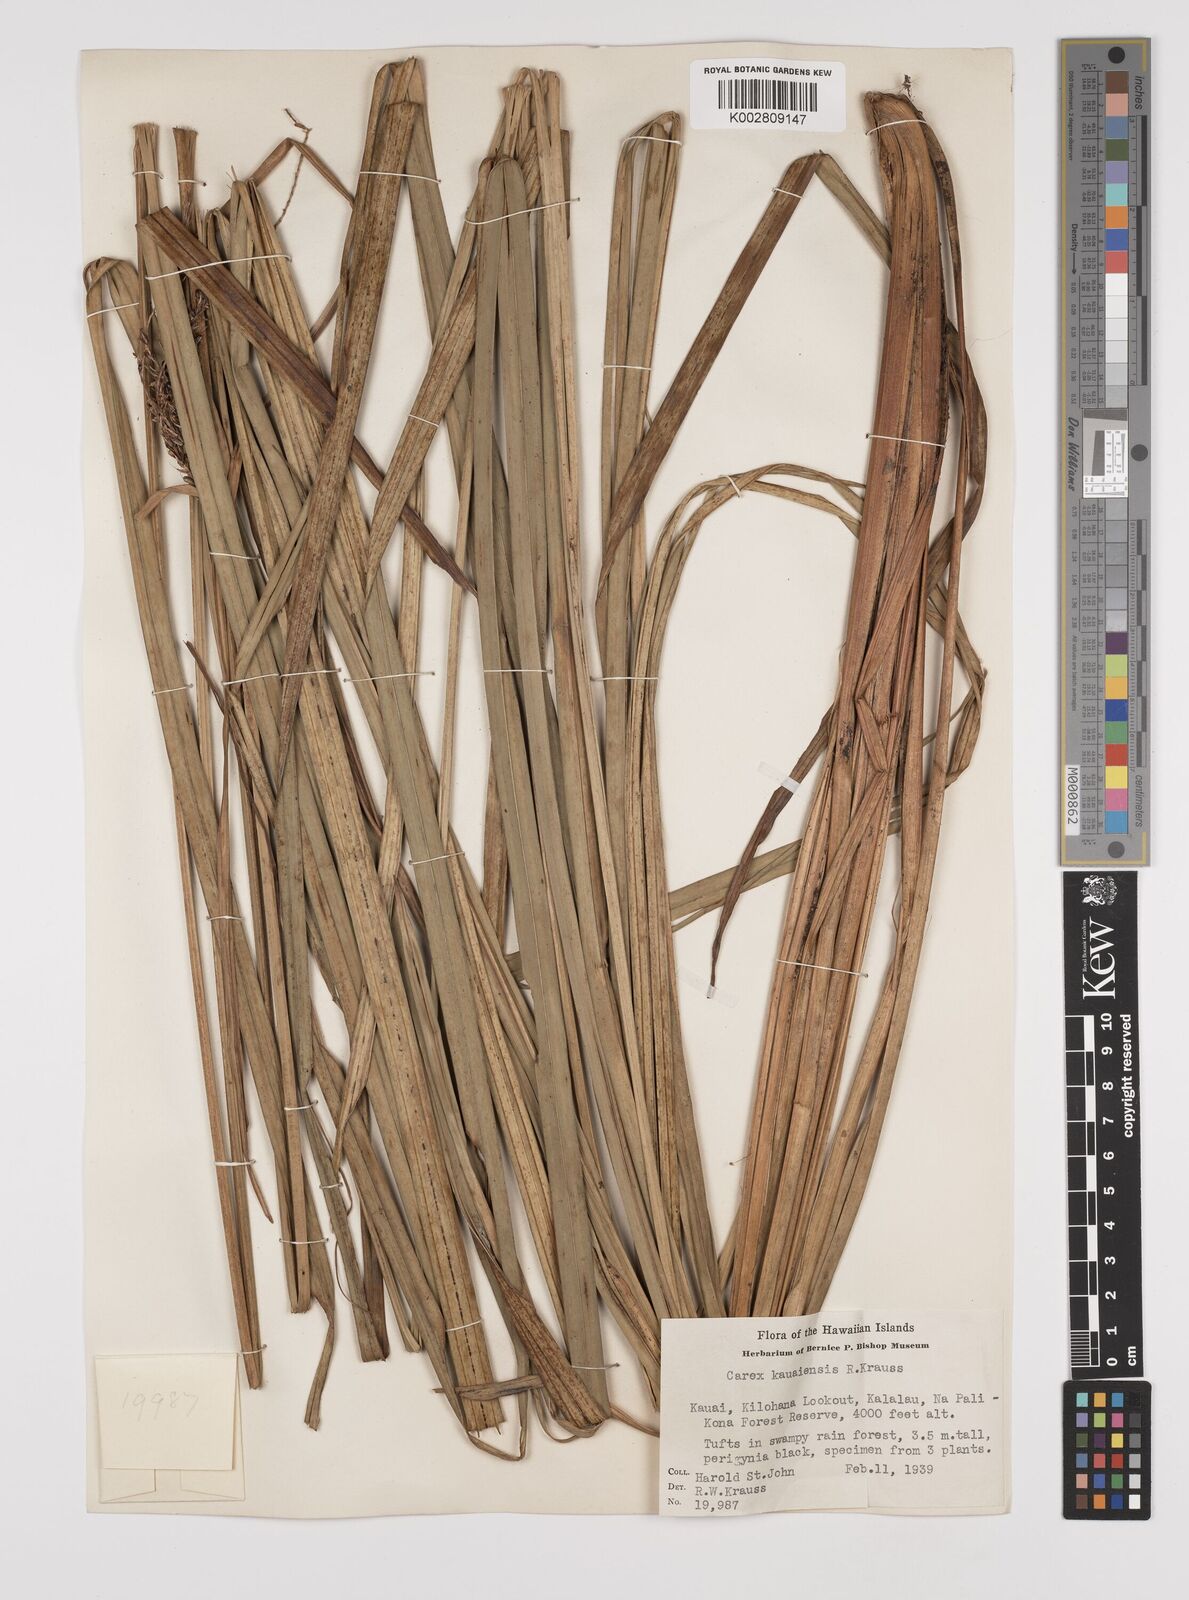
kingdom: Plantae
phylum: Tracheophyta
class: Liliopsida
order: Poales
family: Cyperaceae
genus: Carex
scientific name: Carex kauaiensis
